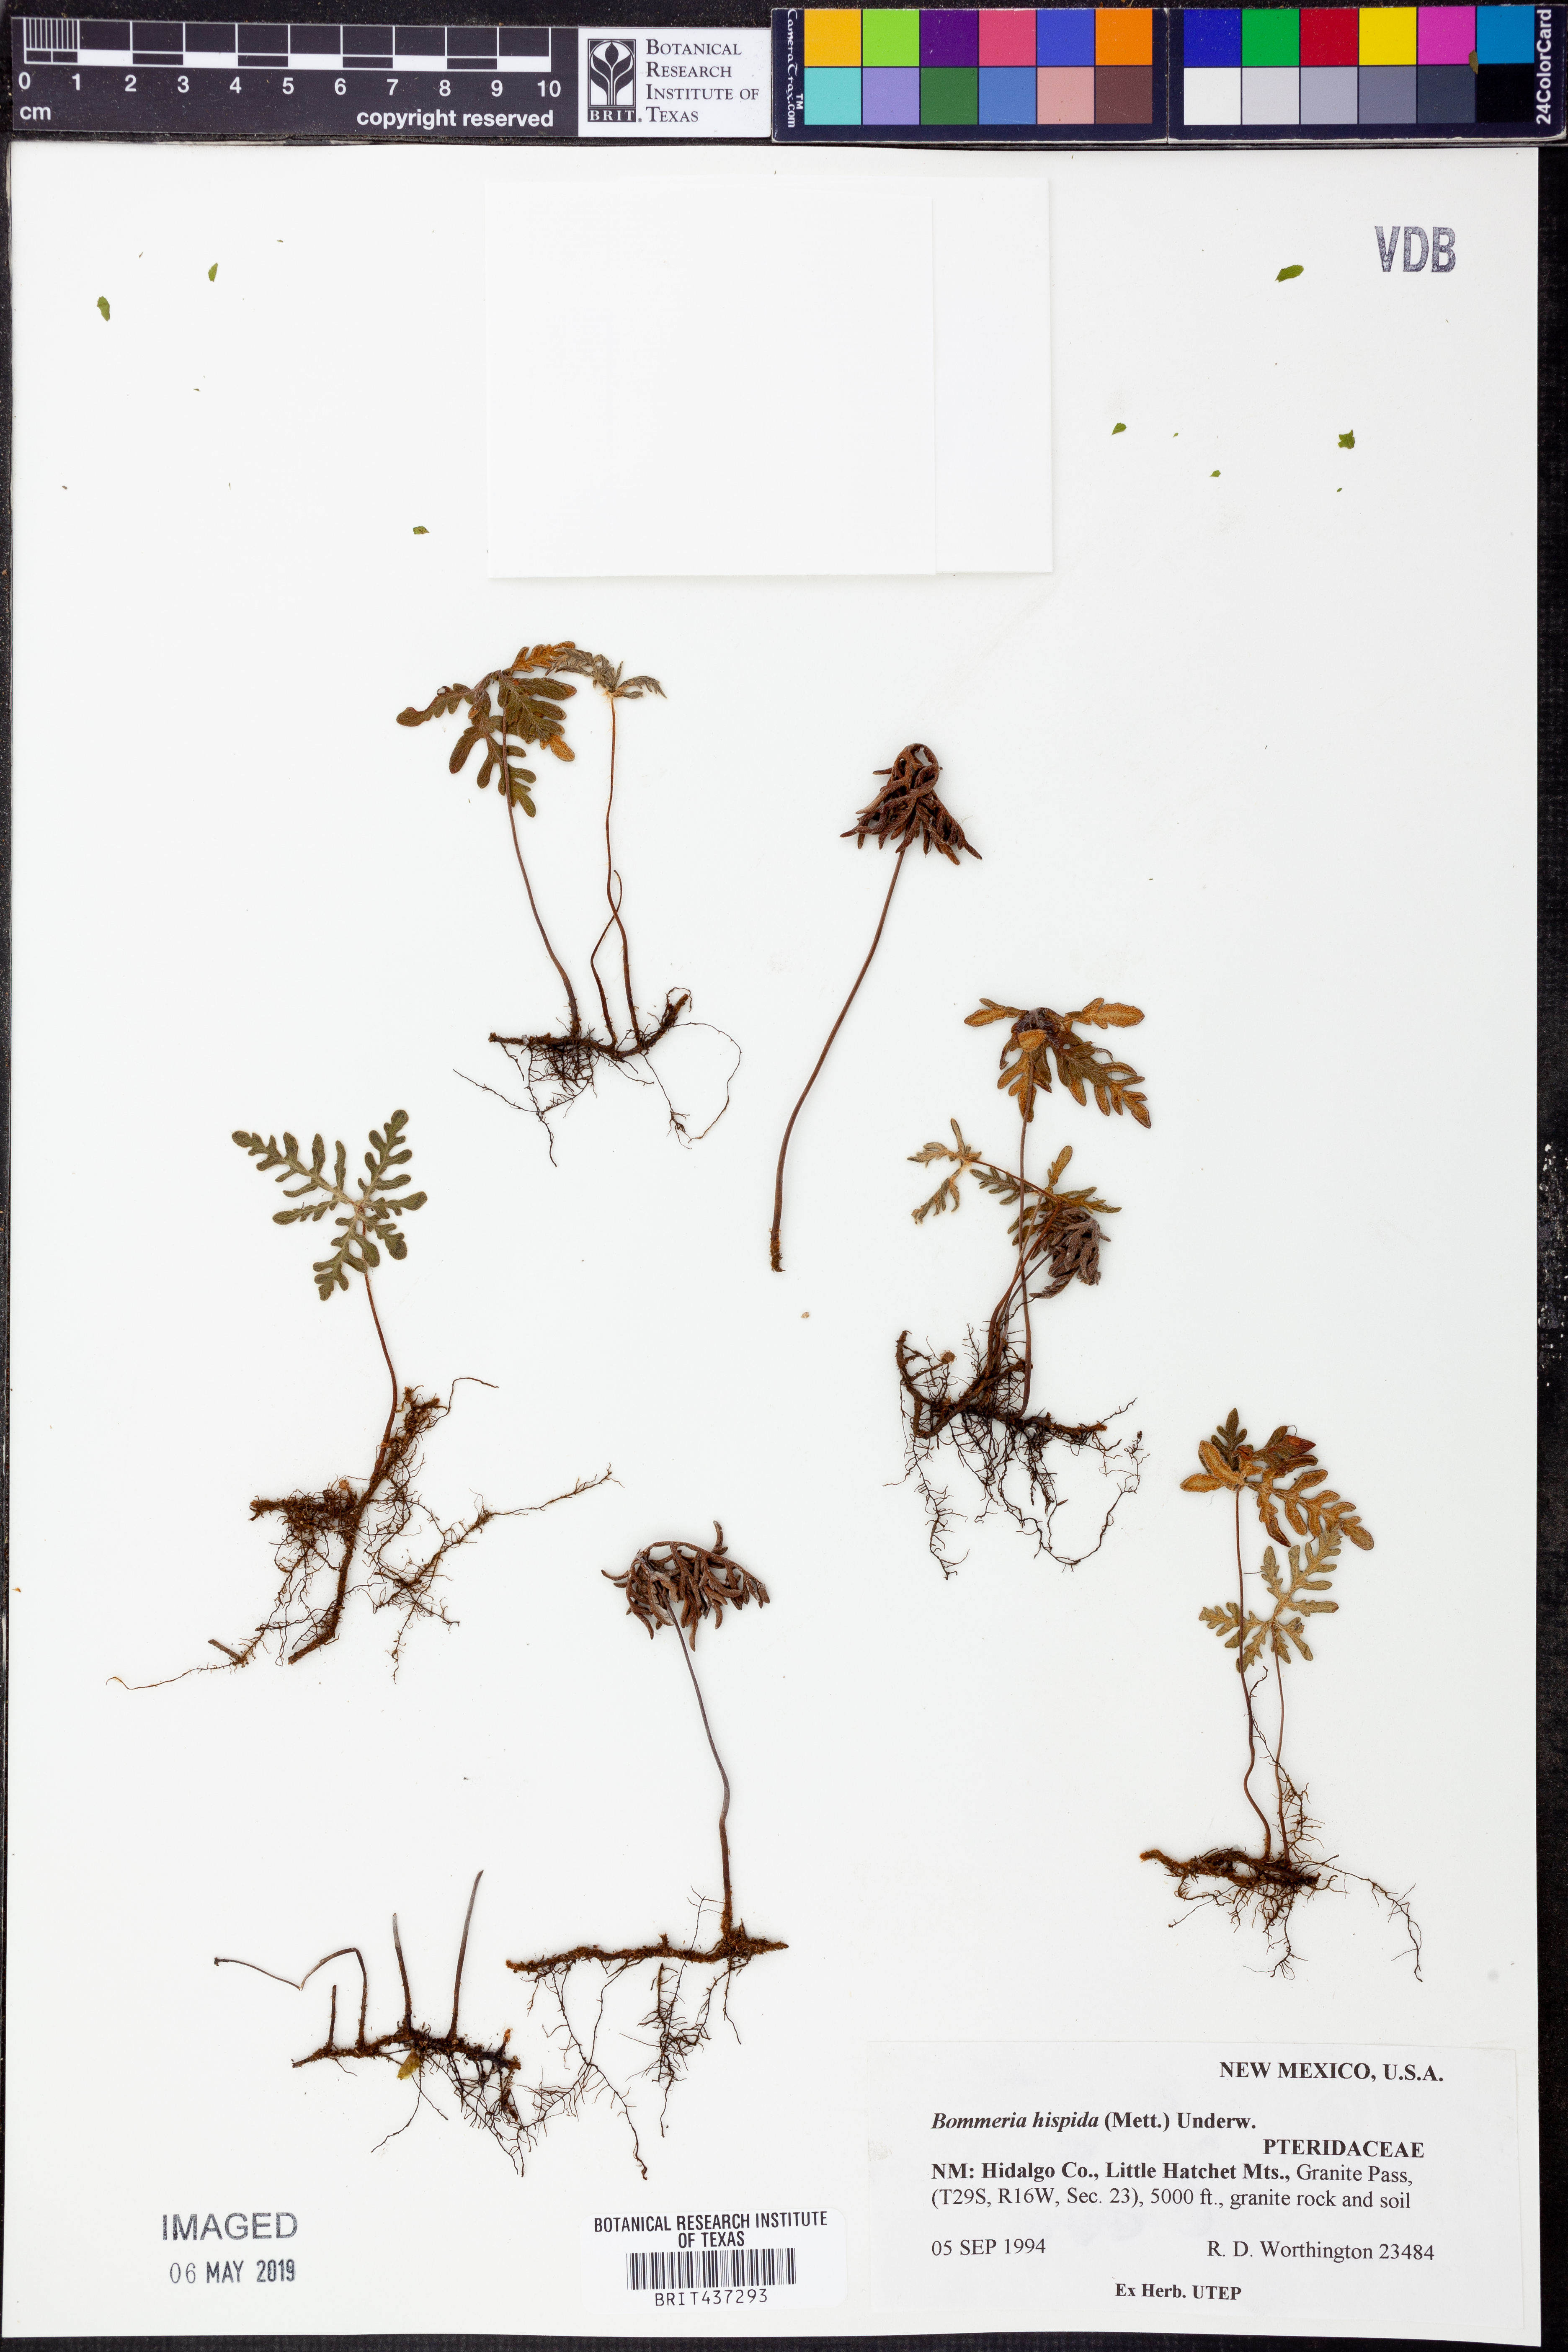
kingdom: Plantae
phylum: Tracheophyta
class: Polypodiopsida
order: Polypodiales
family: Pteridaceae
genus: Bommeria
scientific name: Bommeria hispida
